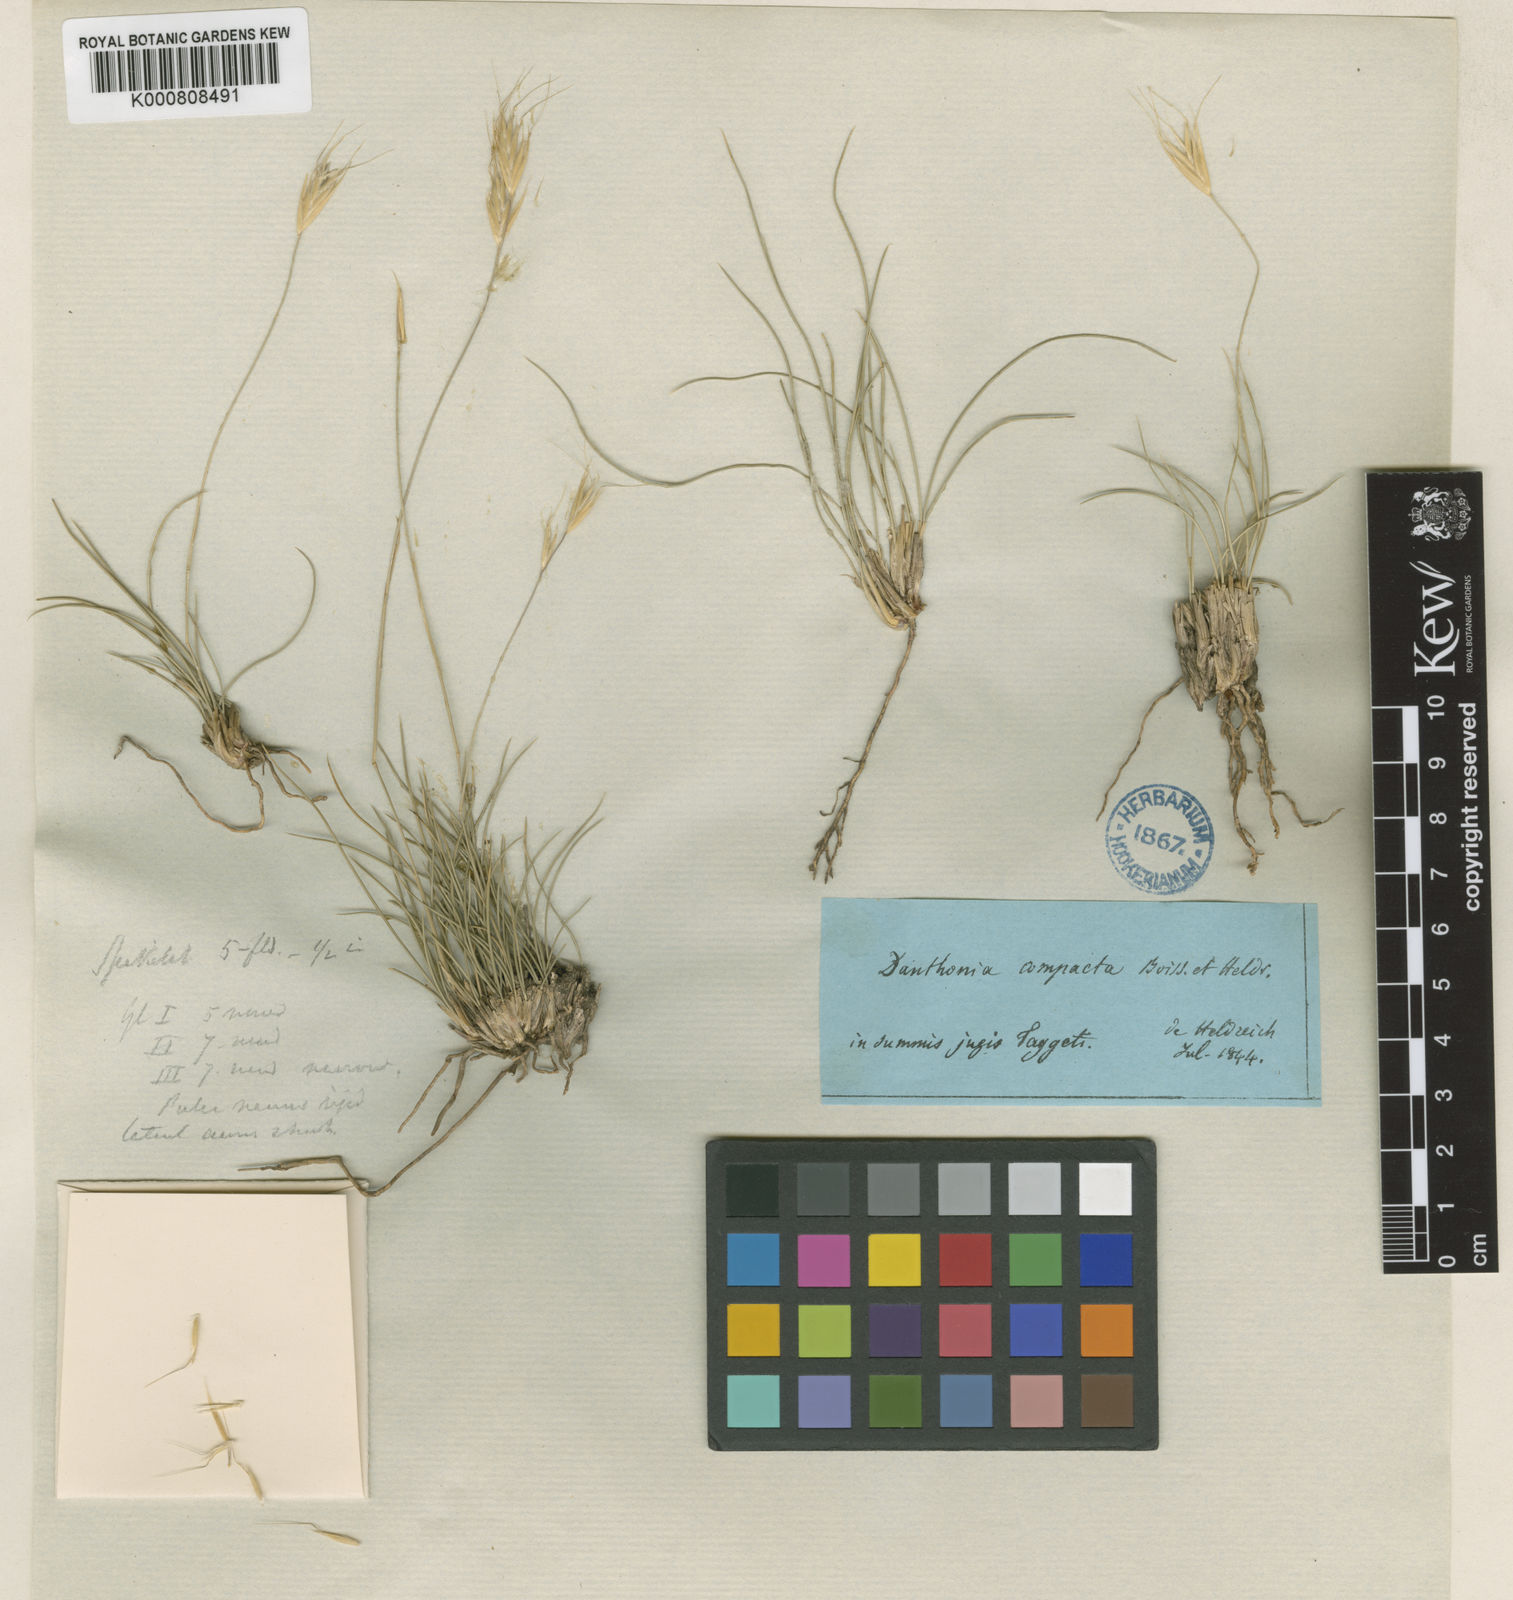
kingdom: Plantae
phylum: Tracheophyta
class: Liliopsida
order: Poales
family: Poaceae
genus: Danthoniastrum
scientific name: Danthoniastrum compactum
